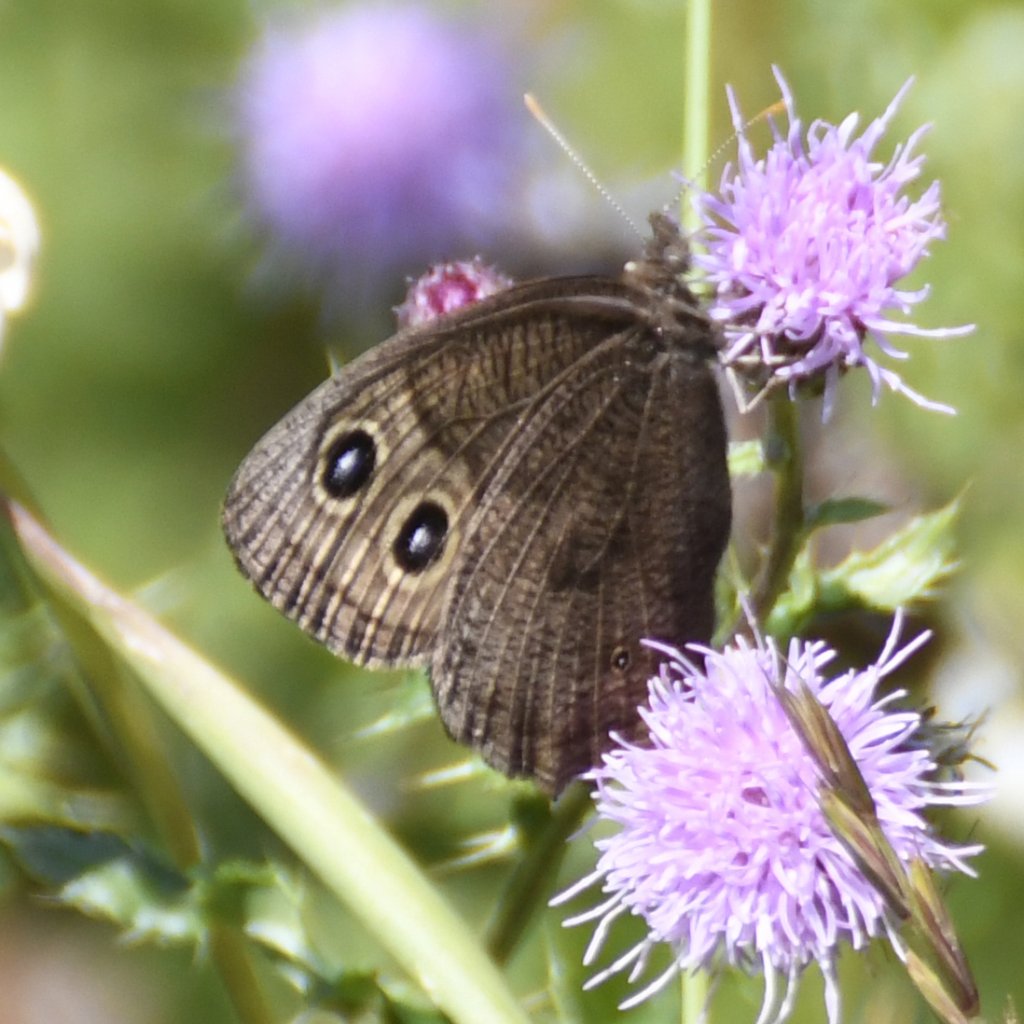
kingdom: Animalia
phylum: Arthropoda
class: Insecta
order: Lepidoptera
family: Nymphalidae
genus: Cercyonis
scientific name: Cercyonis pegala
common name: Common Wood-Nymph
